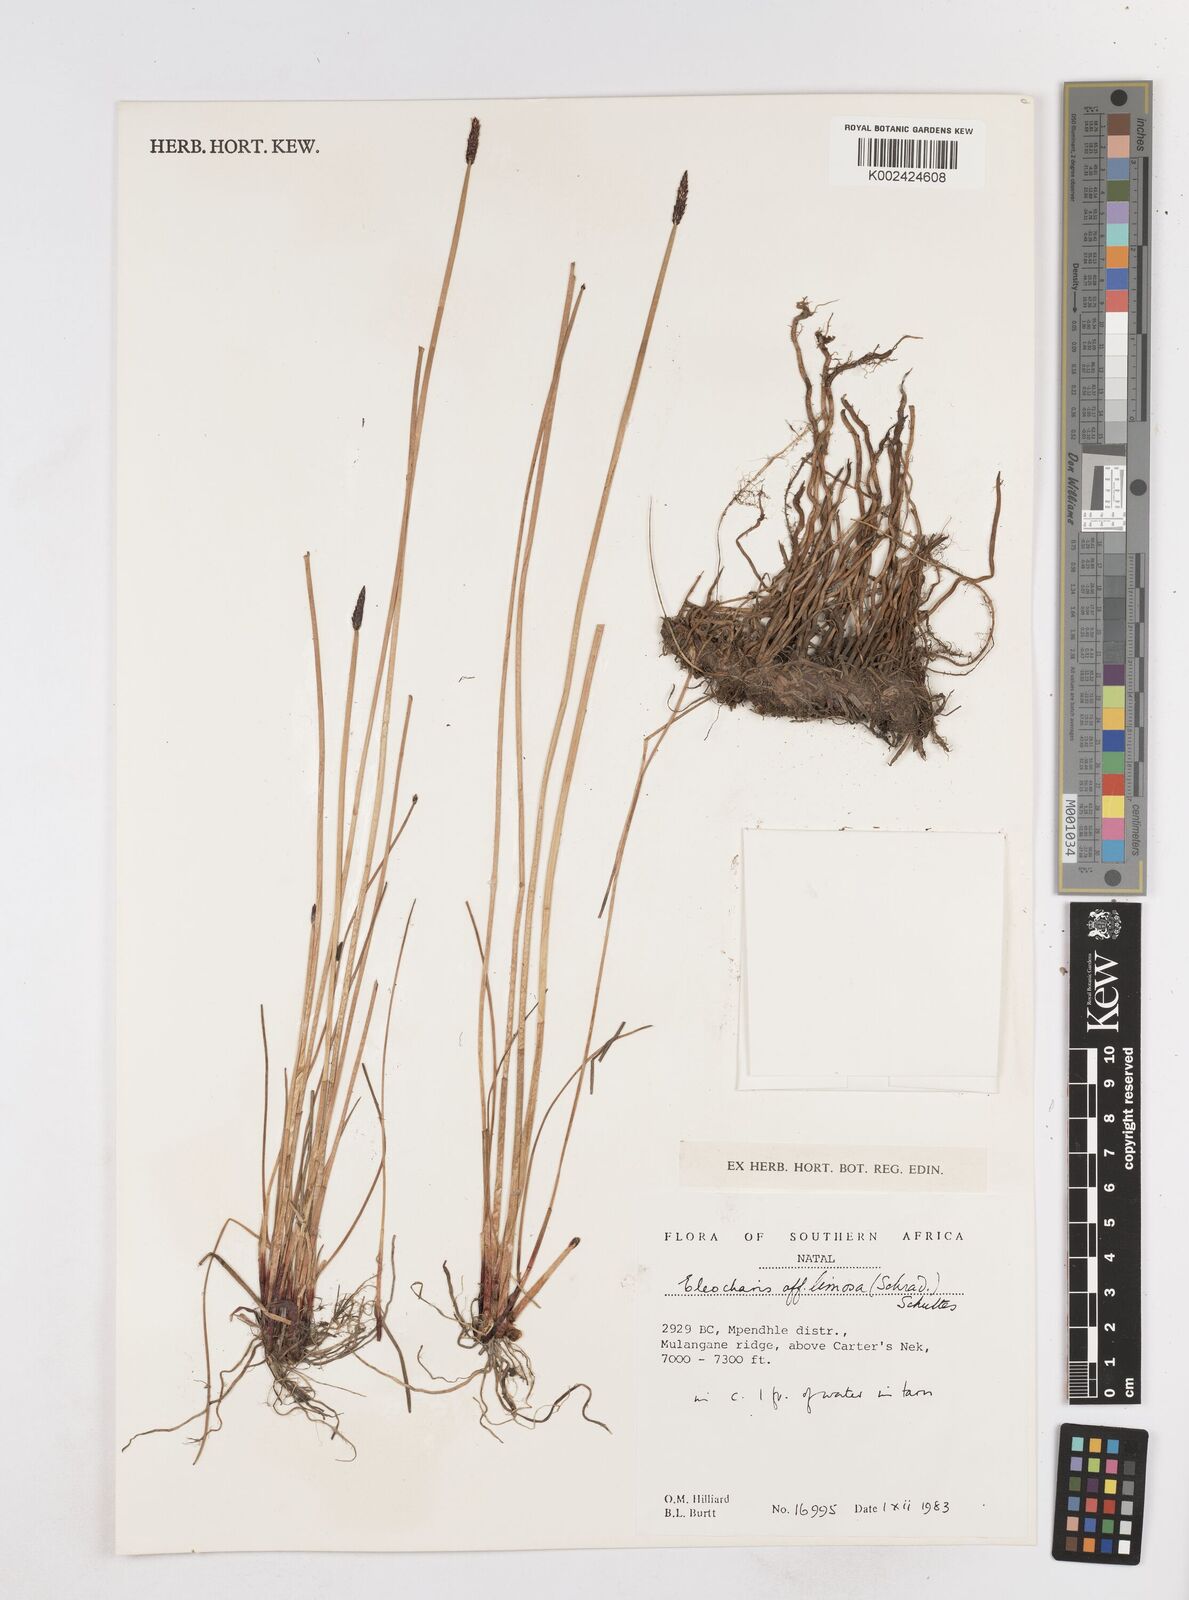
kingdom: Plantae
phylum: Tracheophyta
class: Liliopsida
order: Poales
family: Cyperaceae
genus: Eleocharis
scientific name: Eleocharis limosa
